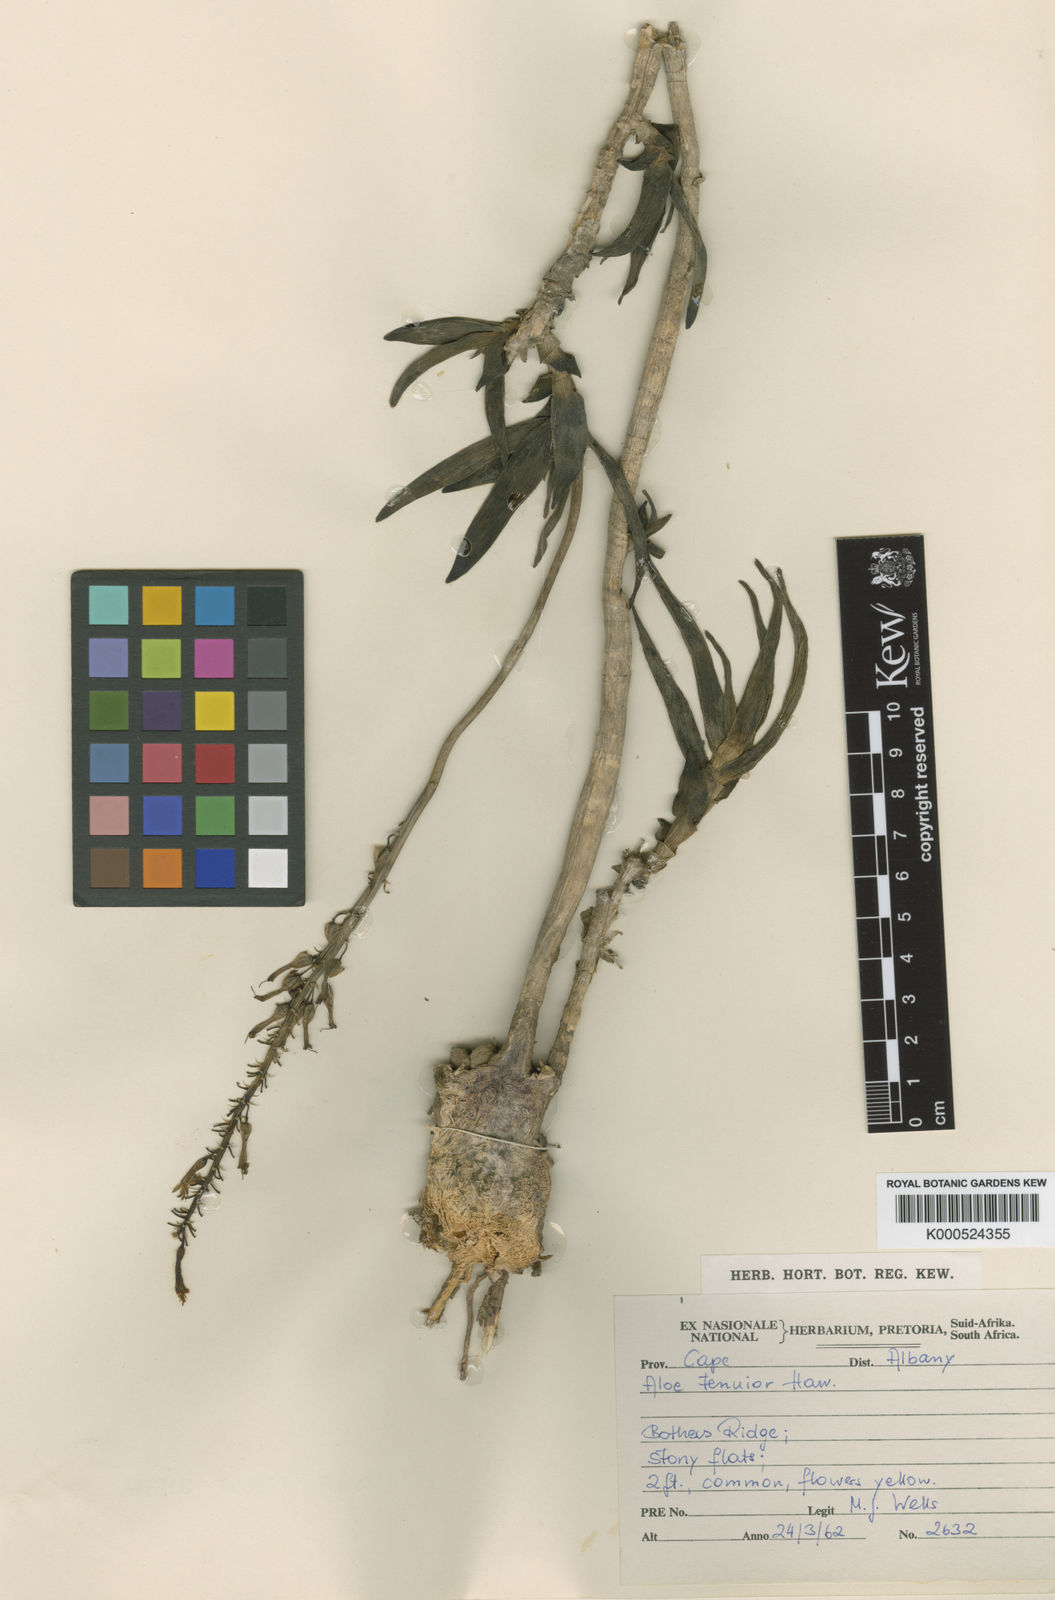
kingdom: Plantae
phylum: Tracheophyta
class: Liliopsida
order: Asparagales
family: Asphodelaceae
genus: Aloiampelos
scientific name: Aloiampelos tenuior
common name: Fence aloe
